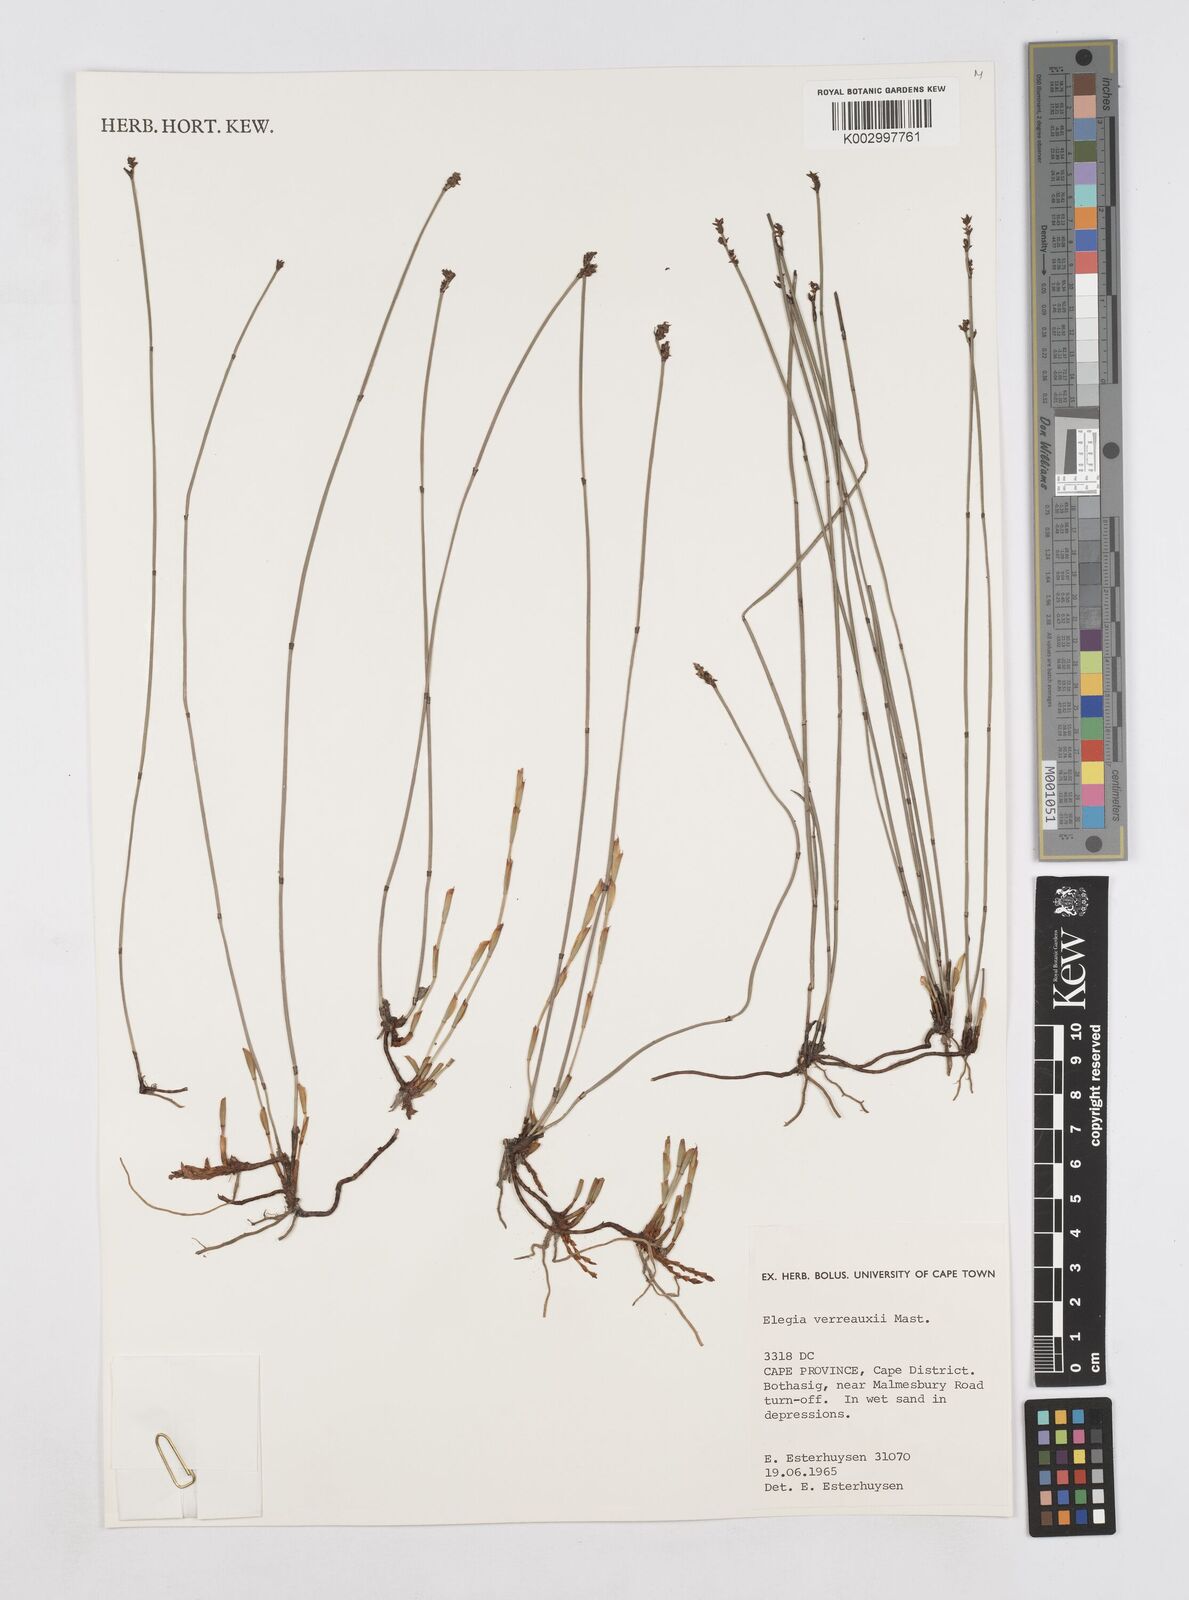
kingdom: Plantae
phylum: Tracheophyta
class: Liliopsida
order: Poales
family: Restionaceae
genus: Elegia
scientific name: Elegia juncea
